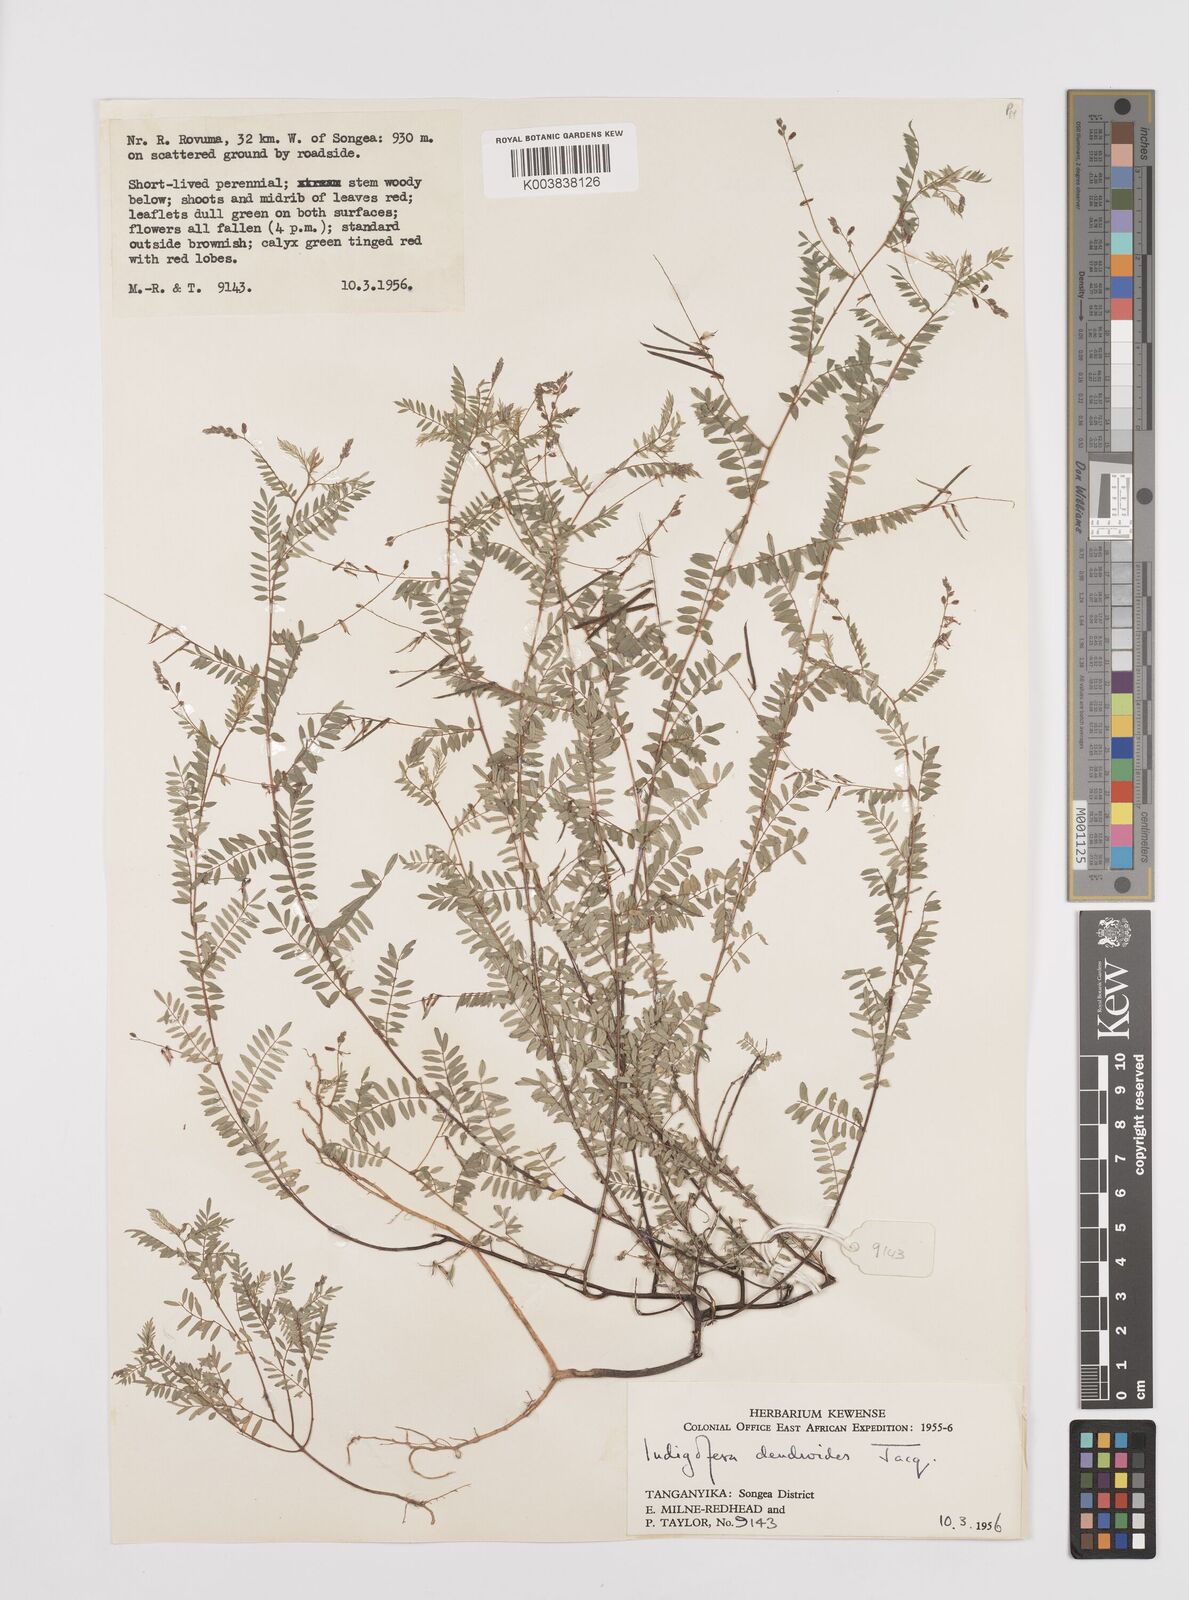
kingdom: Plantae
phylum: Tracheophyta
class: Magnoliopsida
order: Fabales
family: Fabaceae
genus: Indigofera
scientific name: Indigofera dendroides
